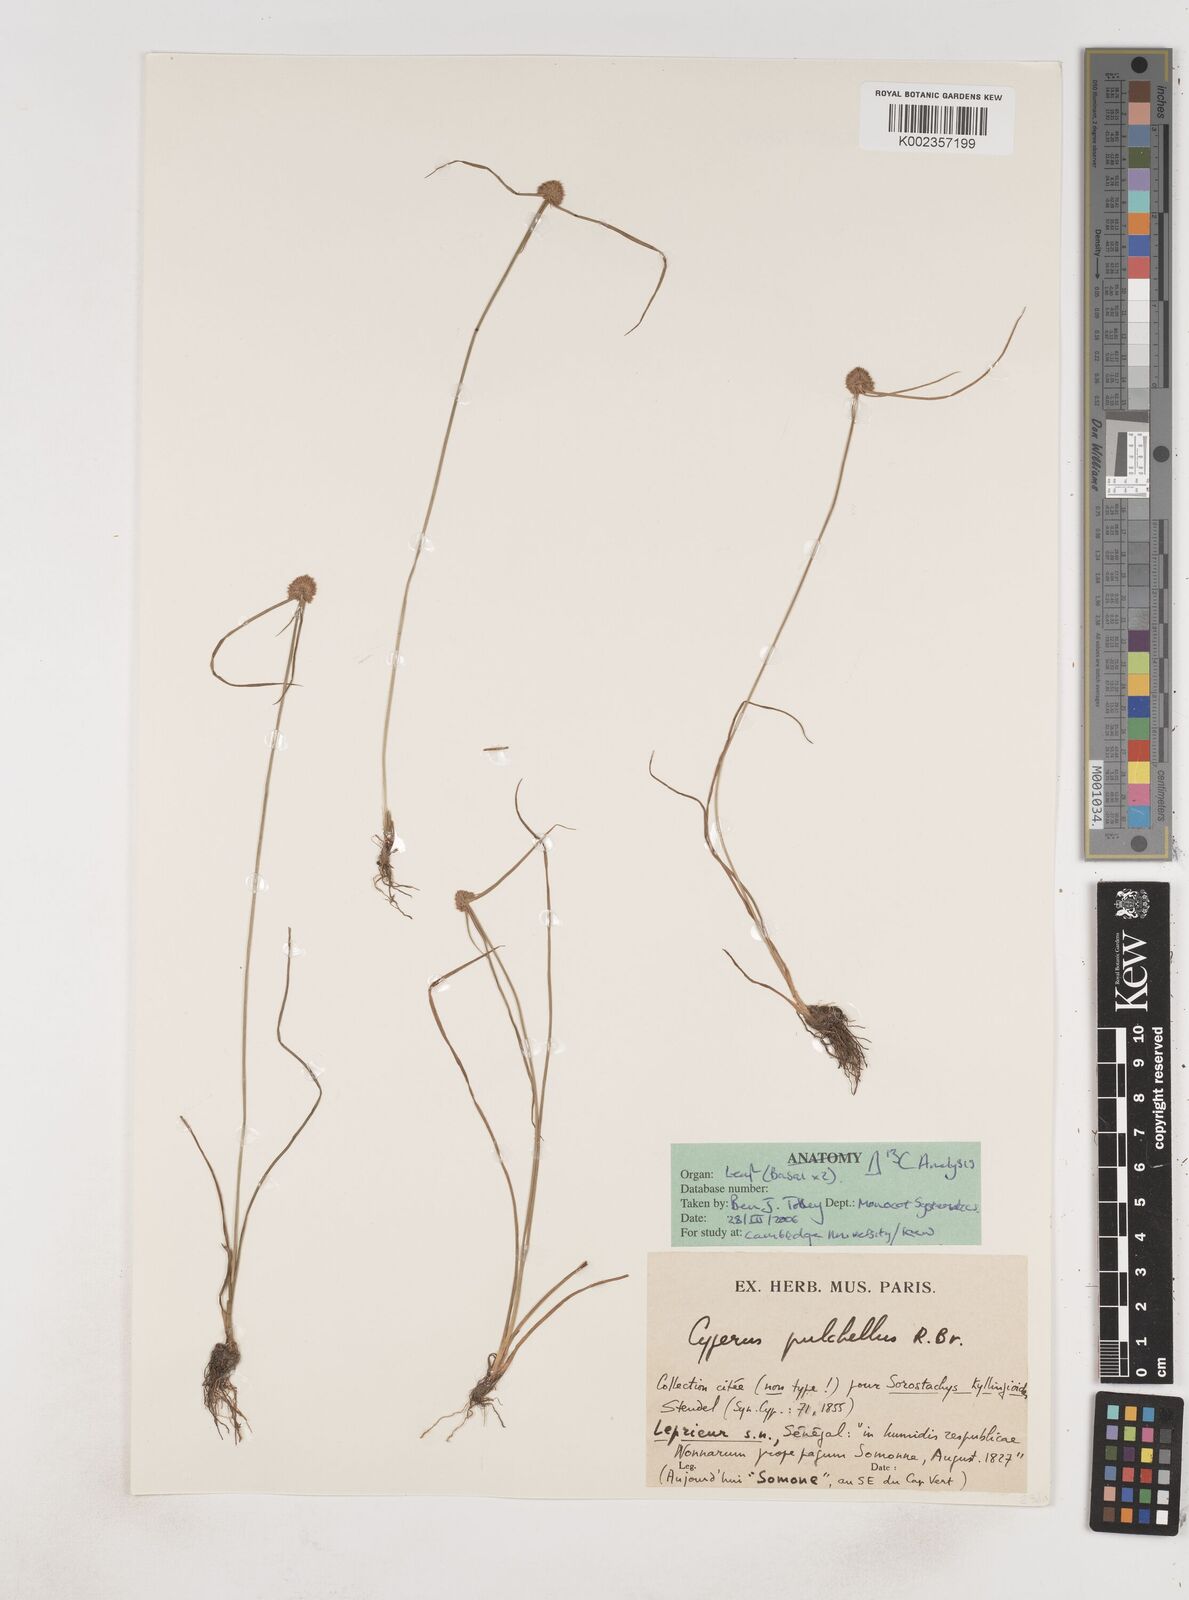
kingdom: Plantae
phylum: Tracheophyta
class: Liliopsida
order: Poales
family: Cyperaceae
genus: Cyperus
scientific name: Cyperus pulchellus
